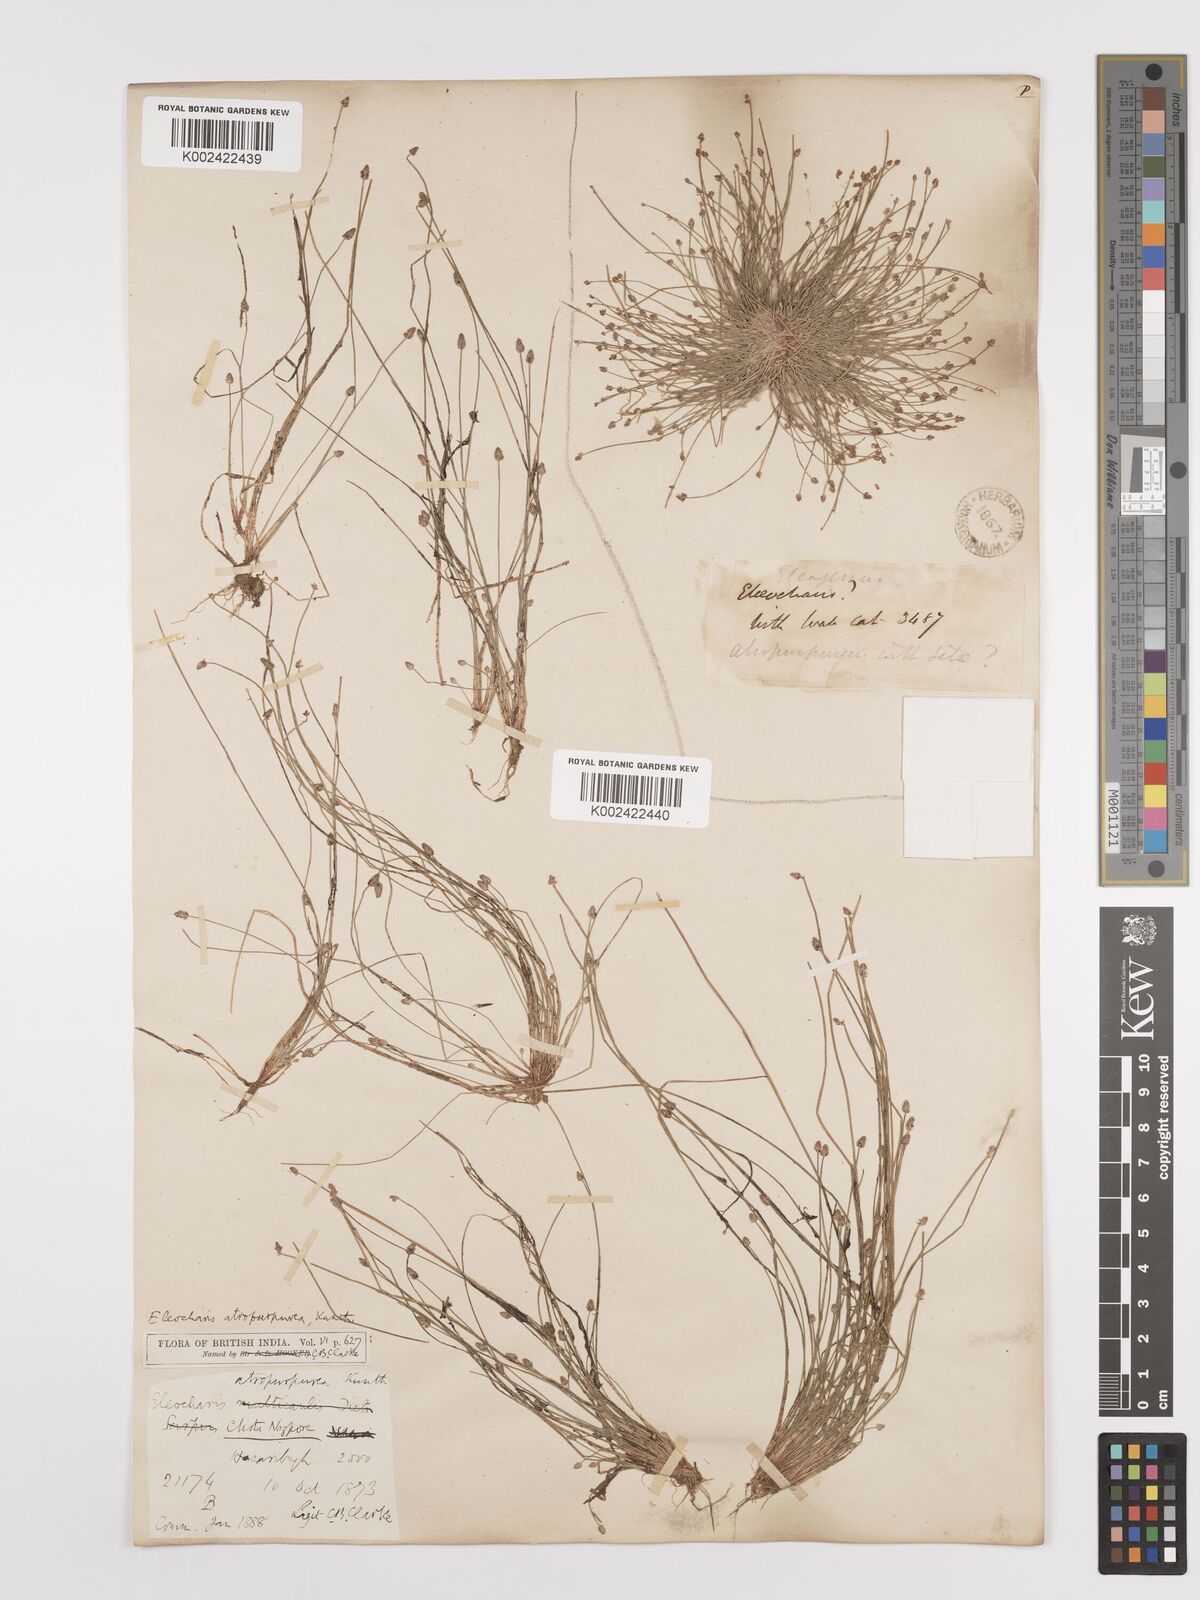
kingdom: Plantae
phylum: Tracheophyta
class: Liliopsida
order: Poales
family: Cyperaceae
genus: Eleocharis
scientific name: Eleocharis atropurpurea
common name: Purple spikerush
